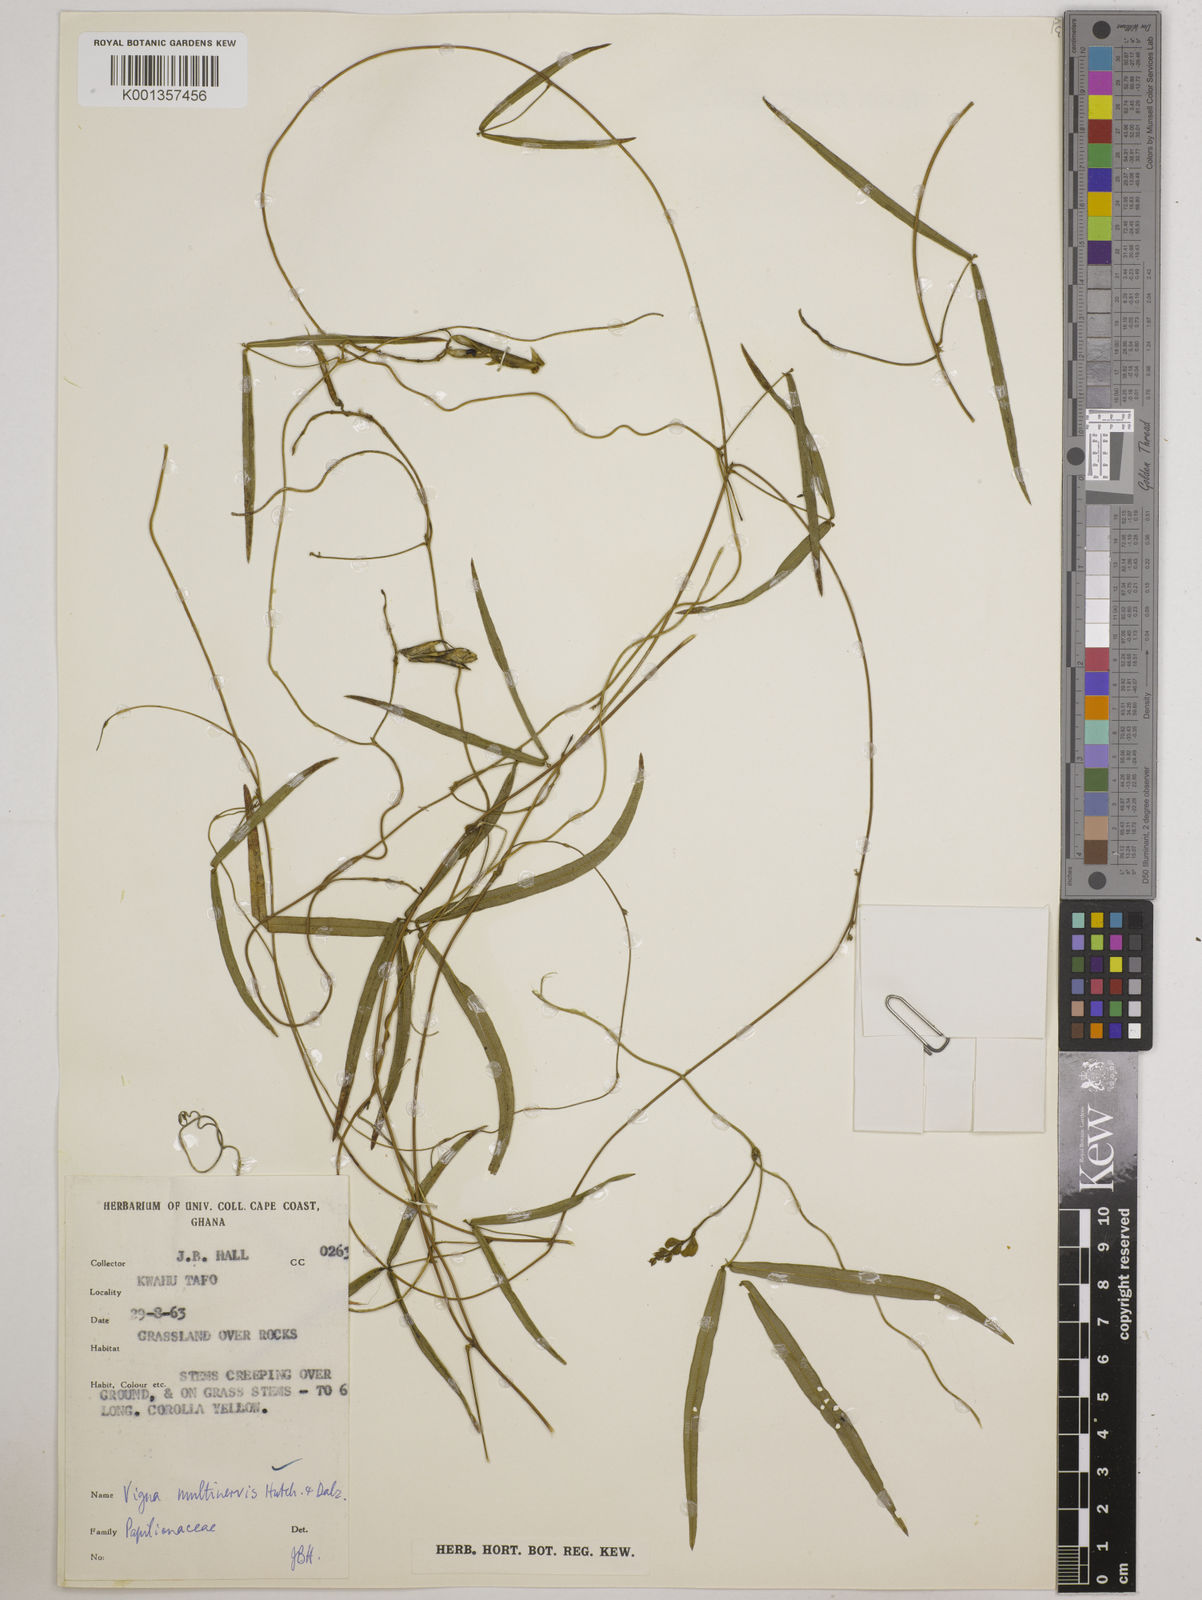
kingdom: Plantae
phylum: Tracheophyta
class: Magnoliopsida
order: Fabales
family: Fabaceae
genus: Vigna
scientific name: Vigna multinervis
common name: Fula-pulaar
